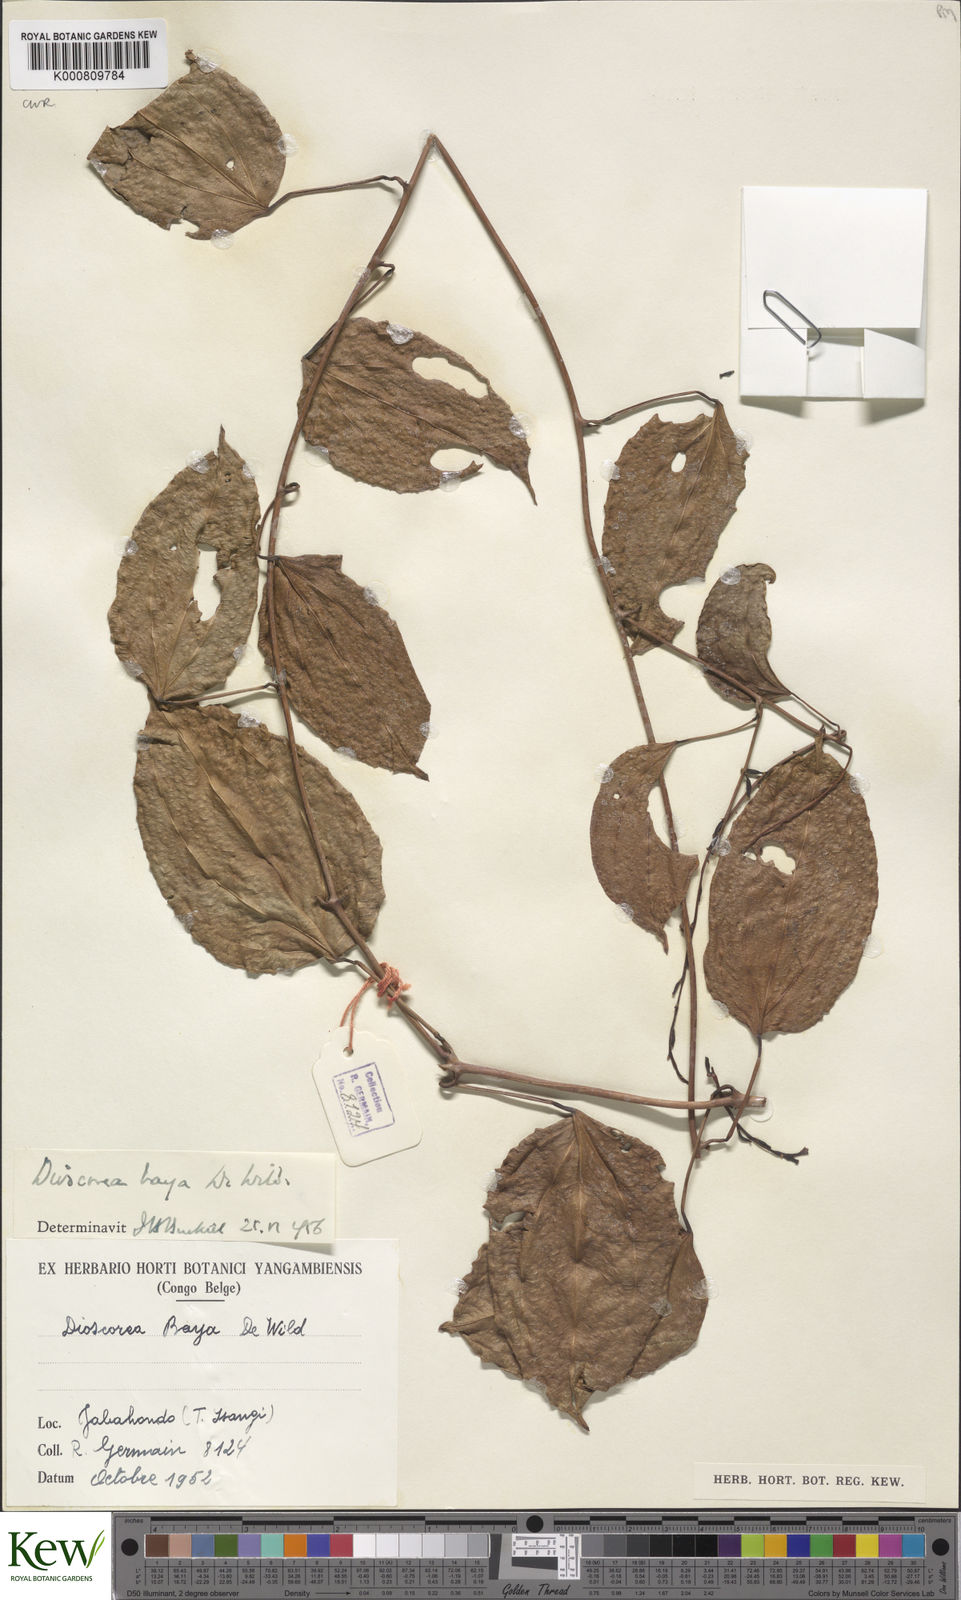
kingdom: Plantae
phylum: Tracheophyta
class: Liliopsida
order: Dioscoreales
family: Dioscoreaceae
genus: Dioscorea
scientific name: Dioscorea baya
